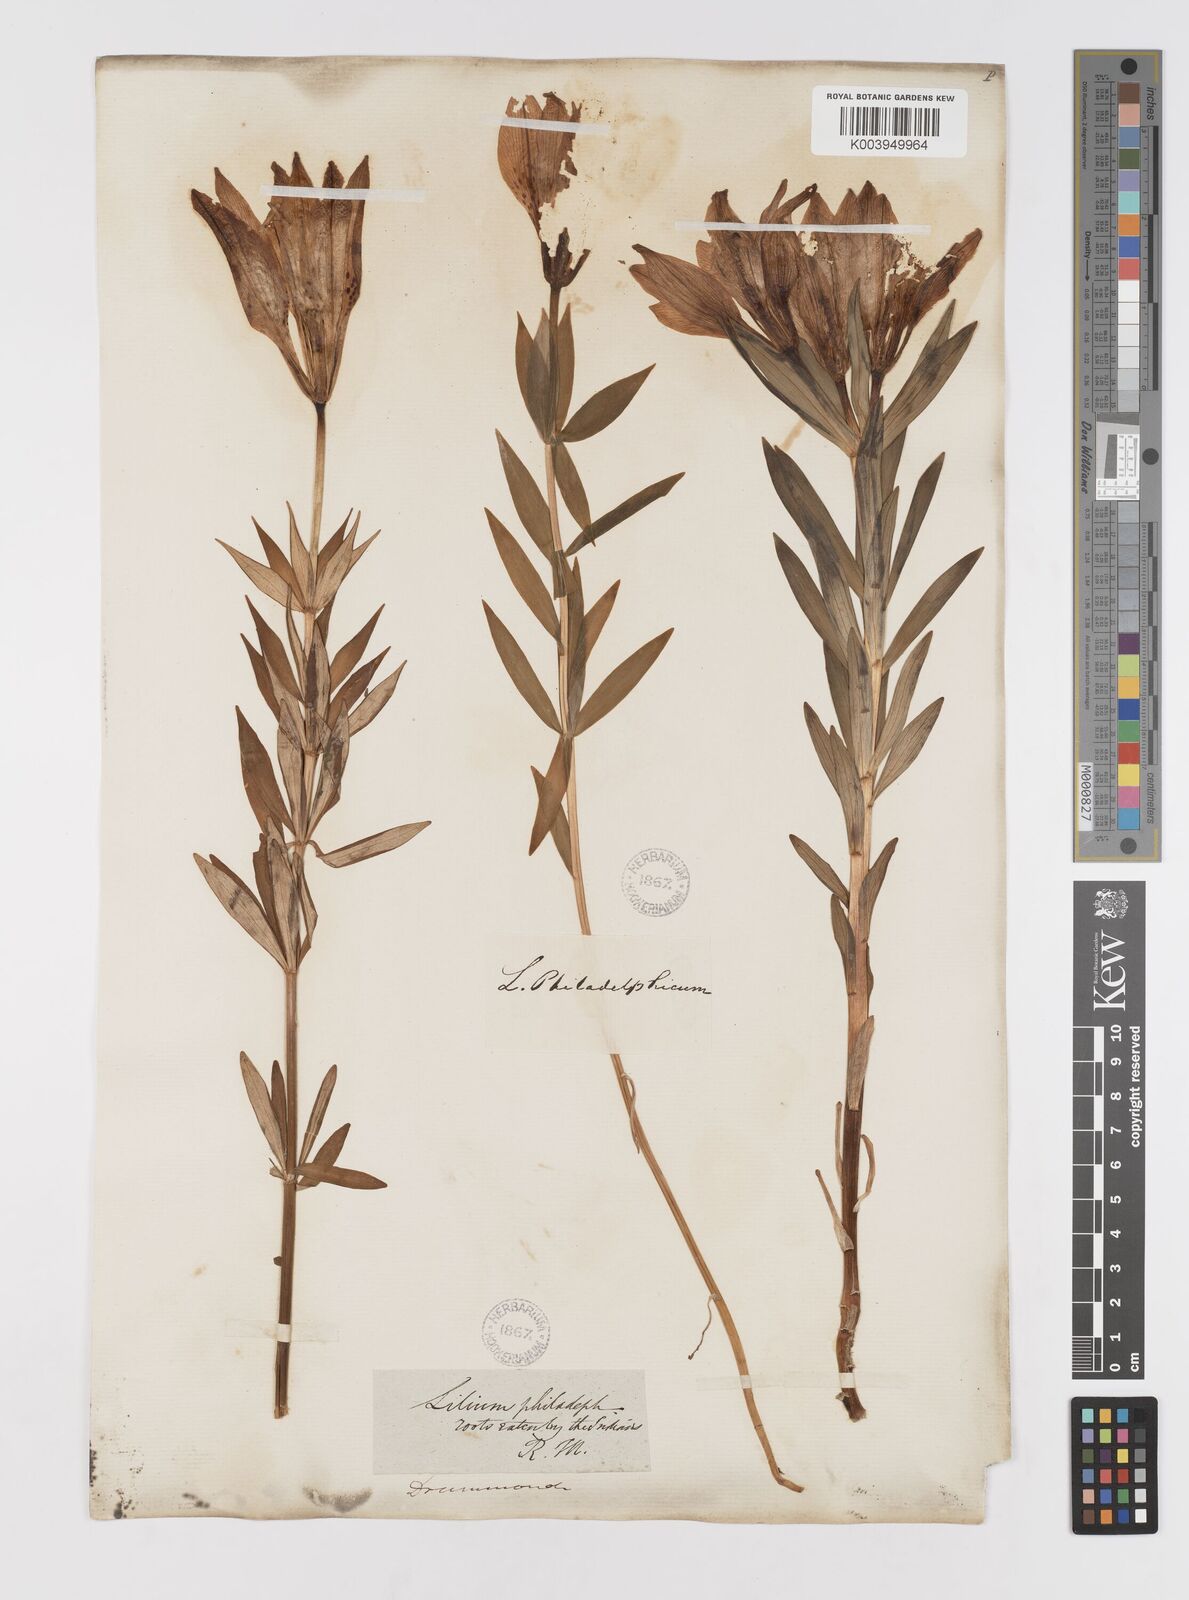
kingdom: Plantae
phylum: Tracheophyta
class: Liliopsida
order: Liliales
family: Liliaceae
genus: Lilium
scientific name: Lilium philadelphicum
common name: Red lily
